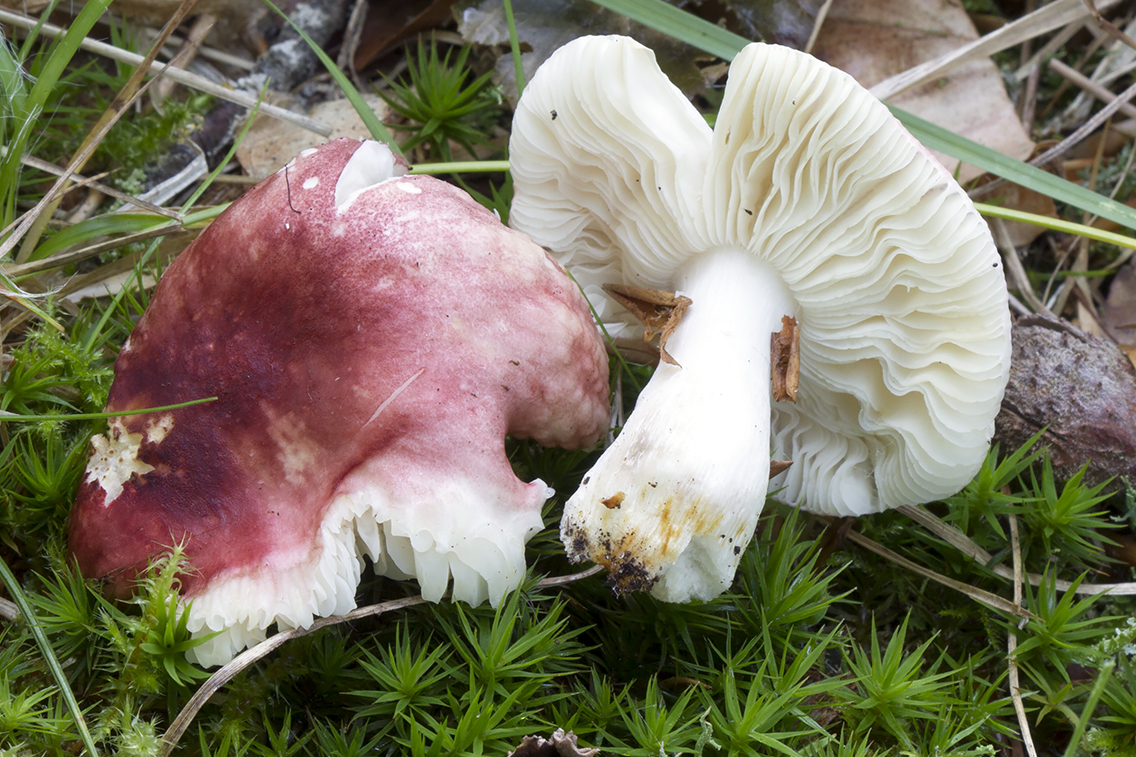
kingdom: Fungi
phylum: Basidiomycota
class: Agaricomycetes
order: Russulales
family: Russulaceae
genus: Russula
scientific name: Russula puellula
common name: gulnende skørhat
